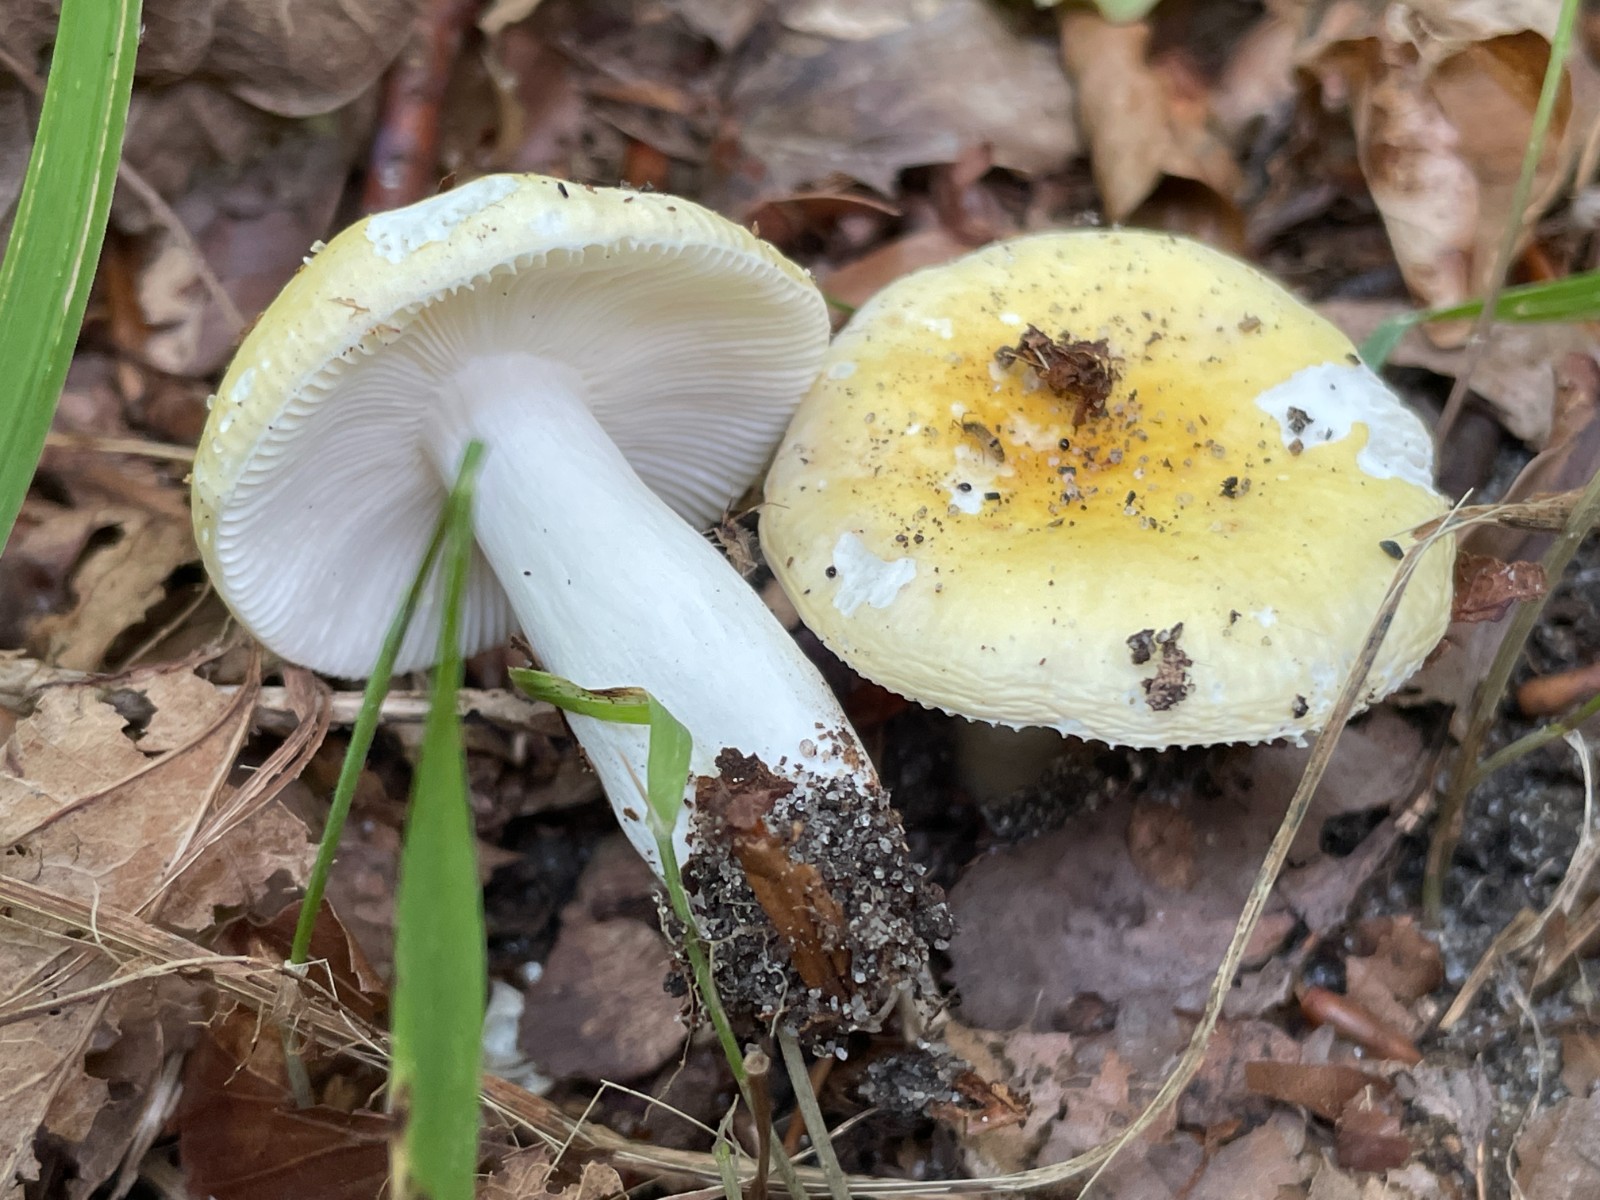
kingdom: Fungi
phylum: Basidiomycota
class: Agaricomycetes
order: Russulales
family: Russulaceae
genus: Russula
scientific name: Russula solaris
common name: sol-skørhat
